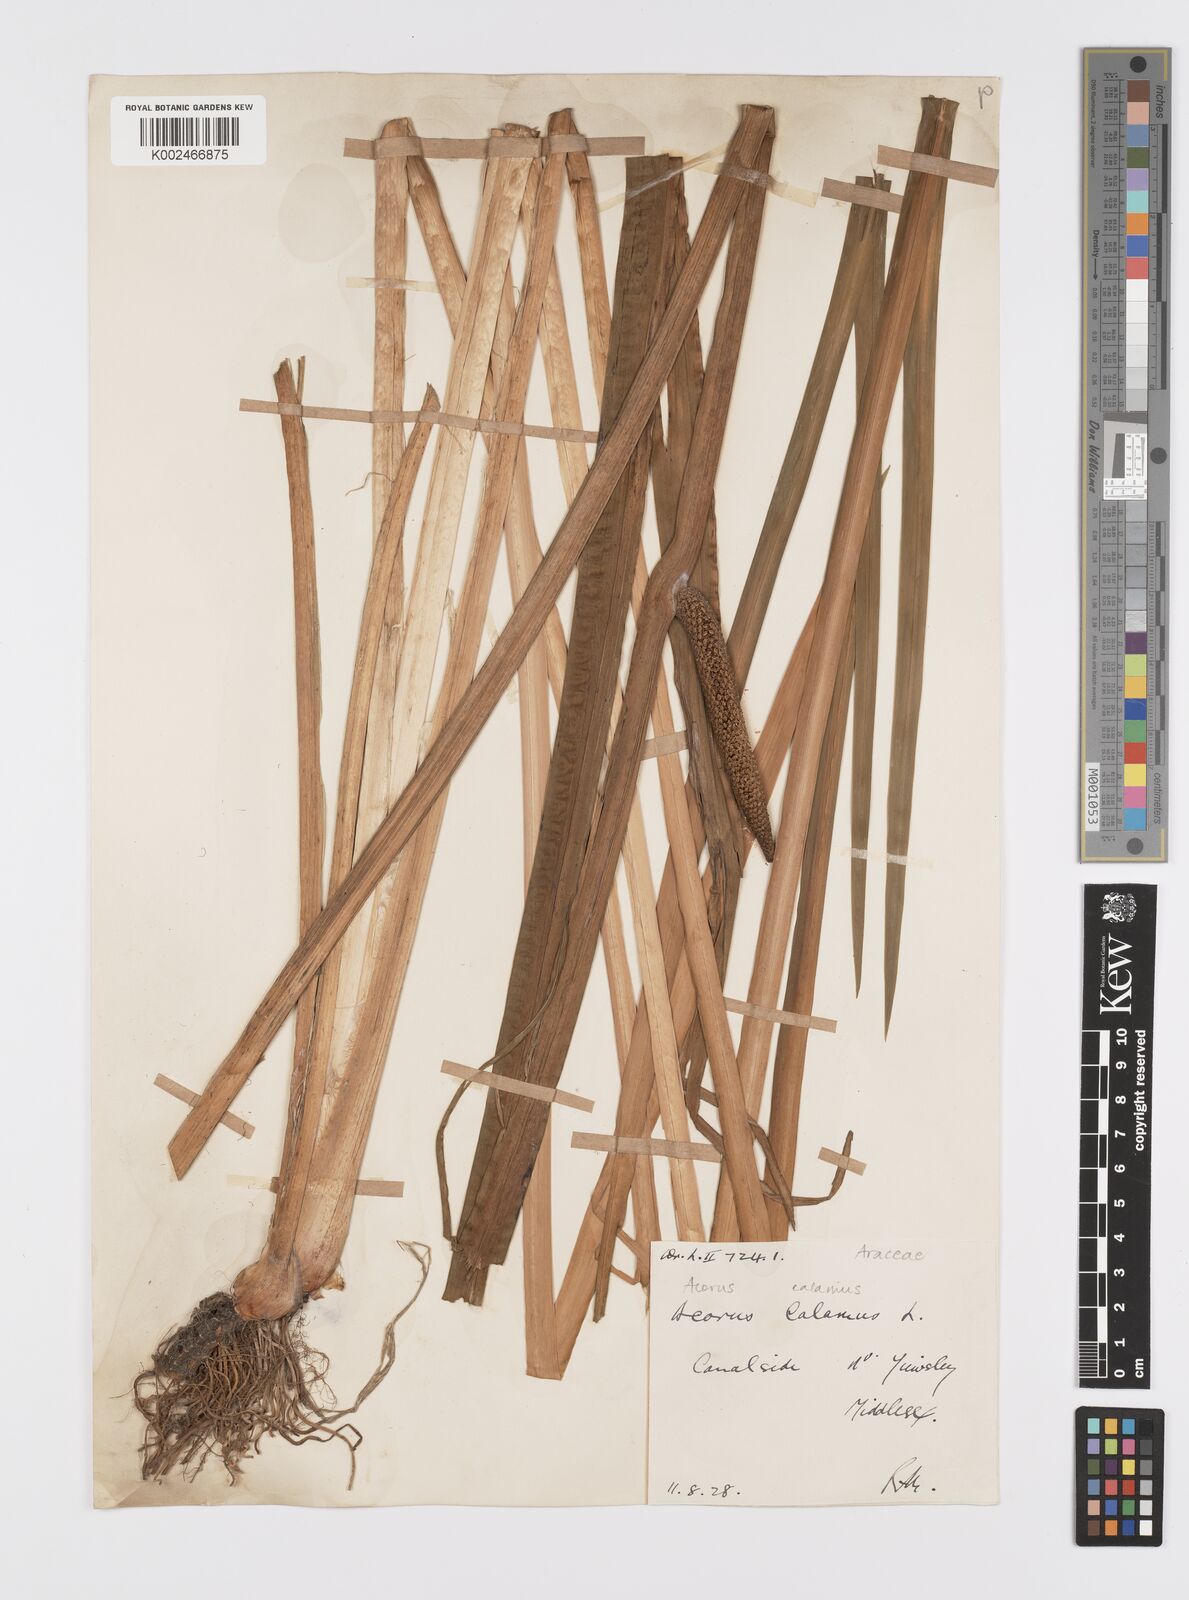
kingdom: Plantae
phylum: Tracheophyta
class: Liliopsida
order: Acorales
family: Acoraceae
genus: Acorus
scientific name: Acorus calamus
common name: Sweet-flag
